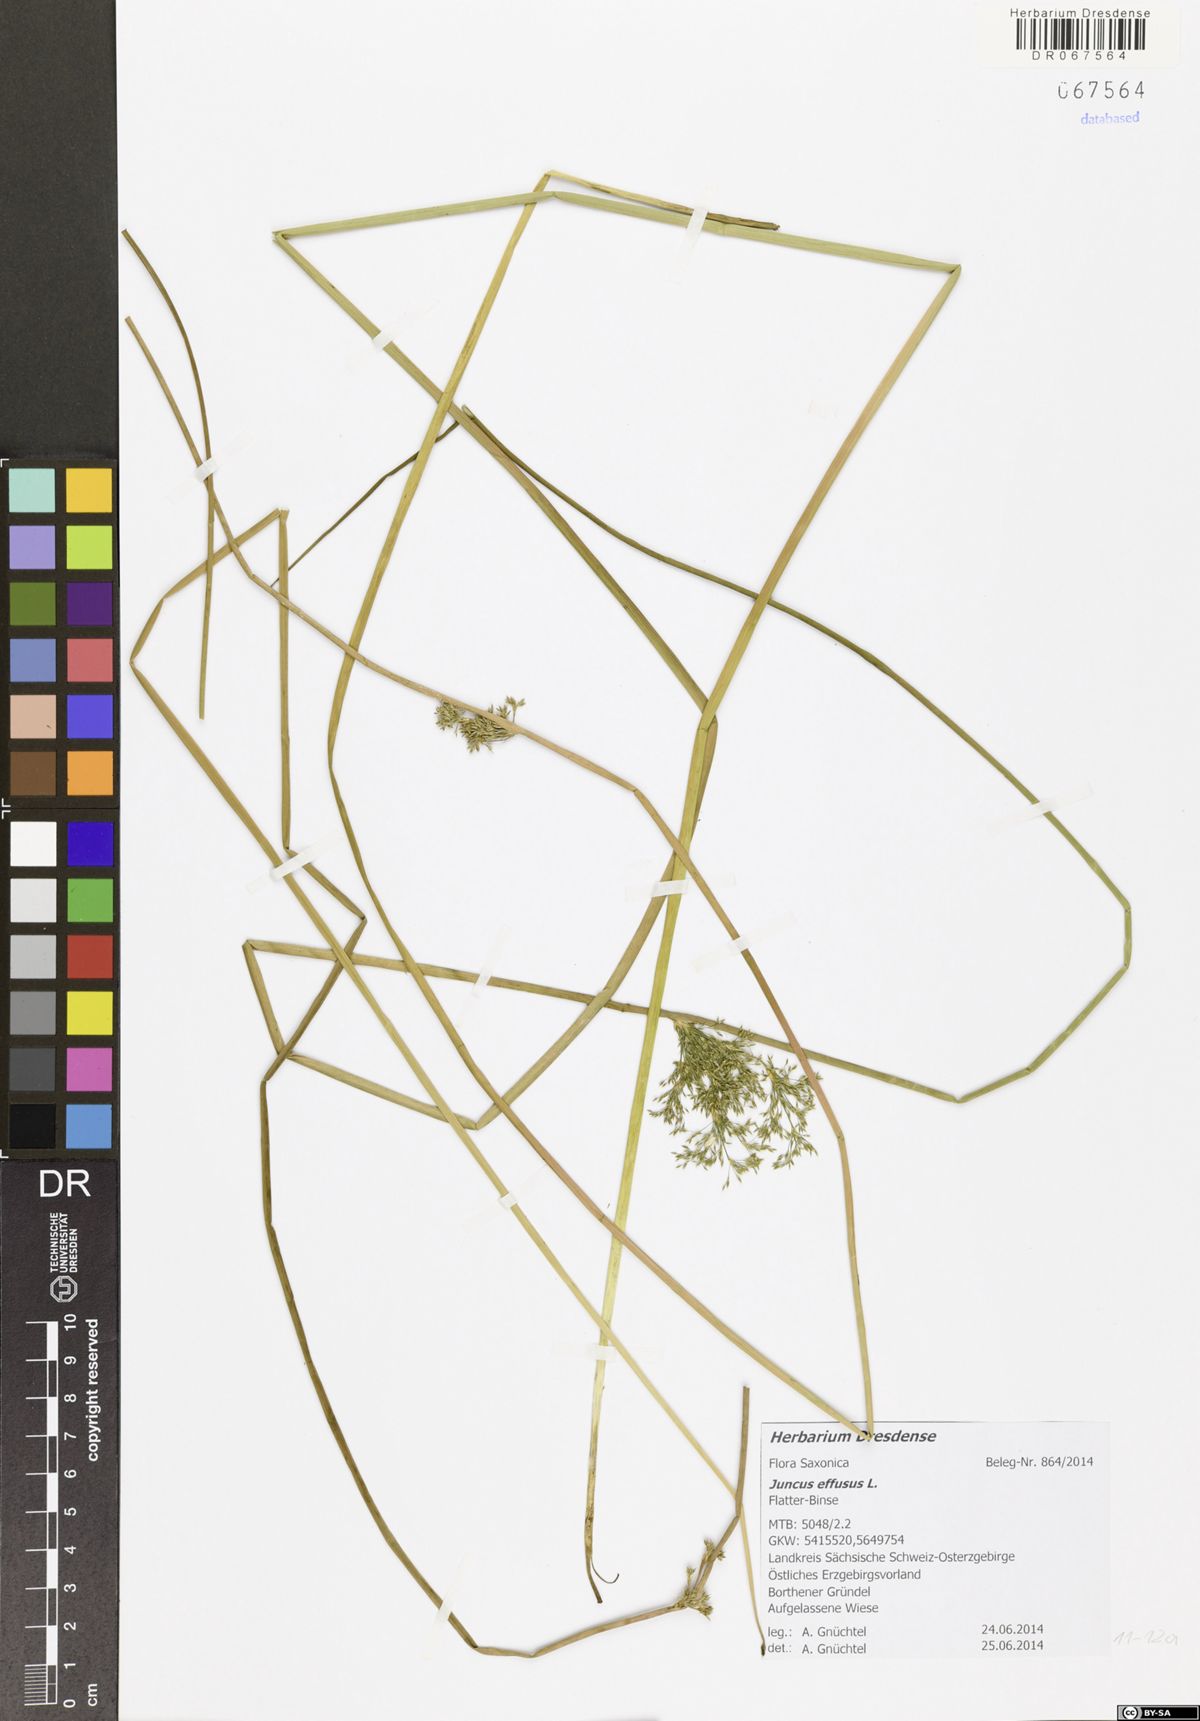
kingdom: Plantae
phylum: Tracheophyta
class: Liliopsida
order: Poales
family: Juncaceae
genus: Juncus
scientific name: Juncus effusus
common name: Soft rush
